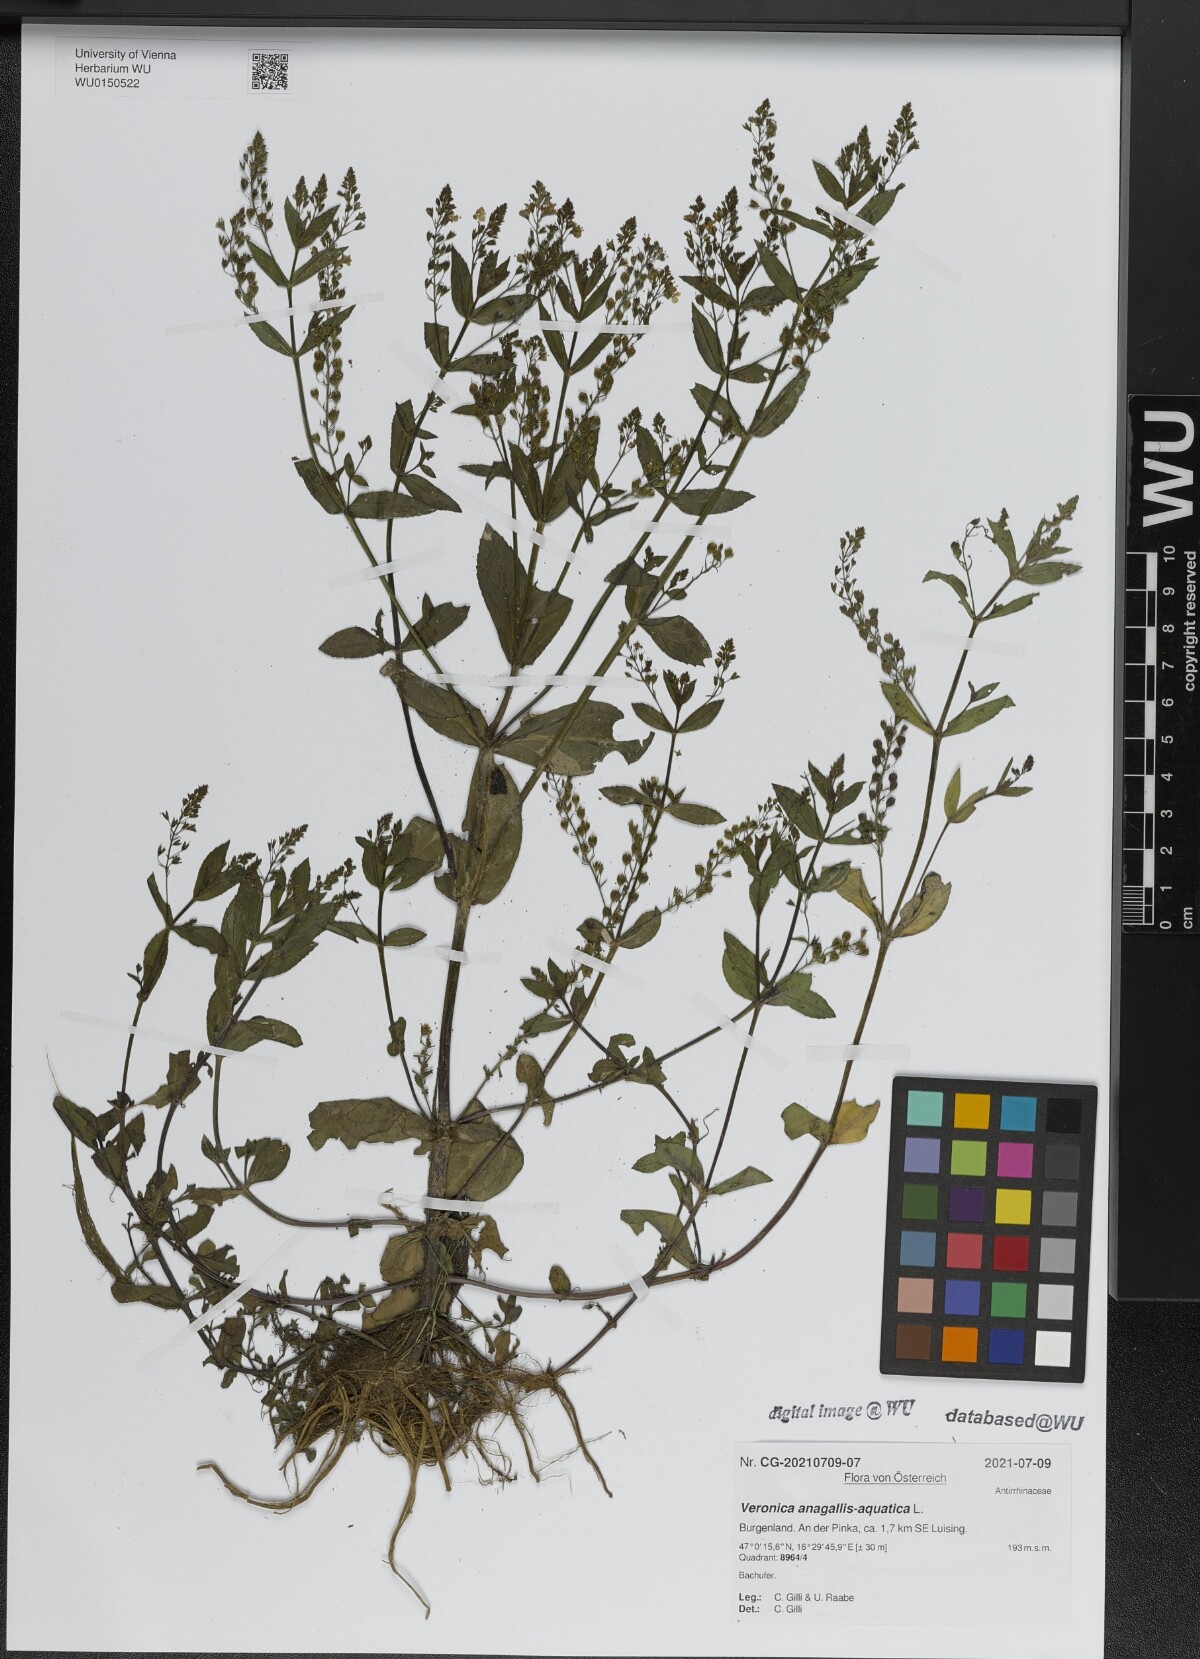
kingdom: Plantae
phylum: Tracheophyta
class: Magnoliopsida
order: Lamiales
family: Plantaginaceae
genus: Veronica
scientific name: Veronica anagallis-aquatica
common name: Water speedwell
